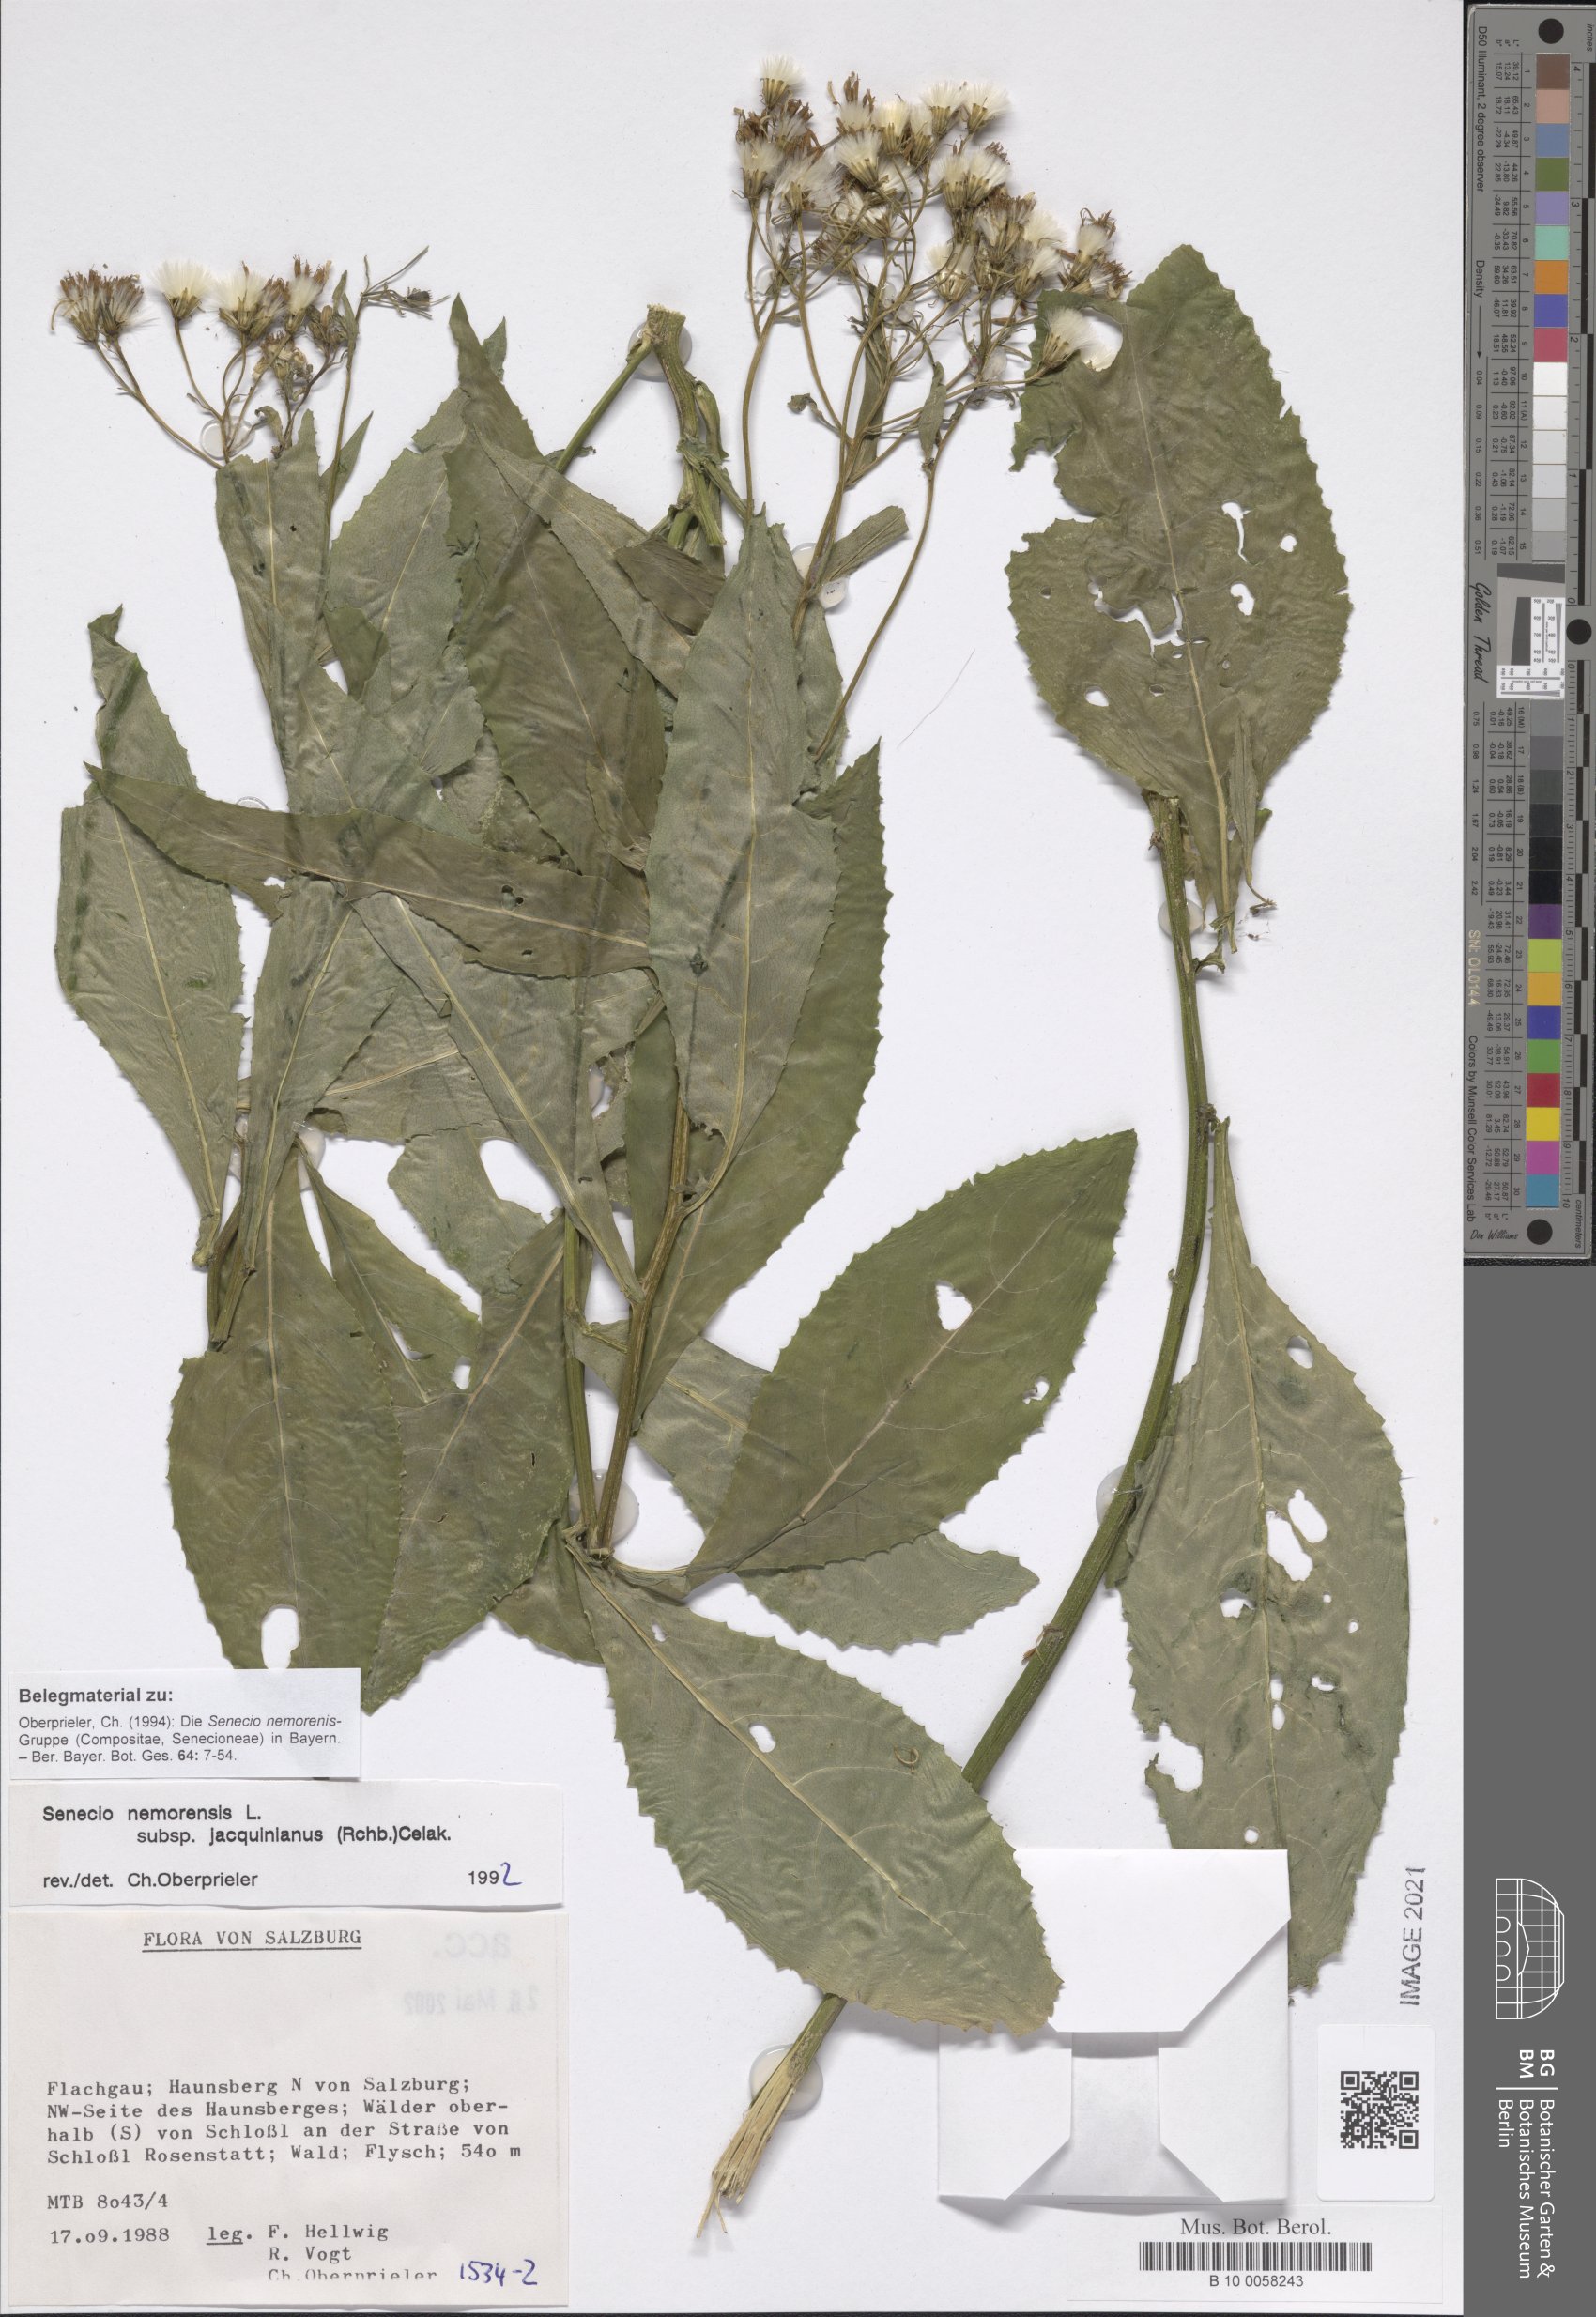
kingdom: Plantae
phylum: Tracheophyta
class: Magnoliopsida
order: Asterales
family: Asteraceae
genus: Senecio
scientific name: Senecio germanicus
